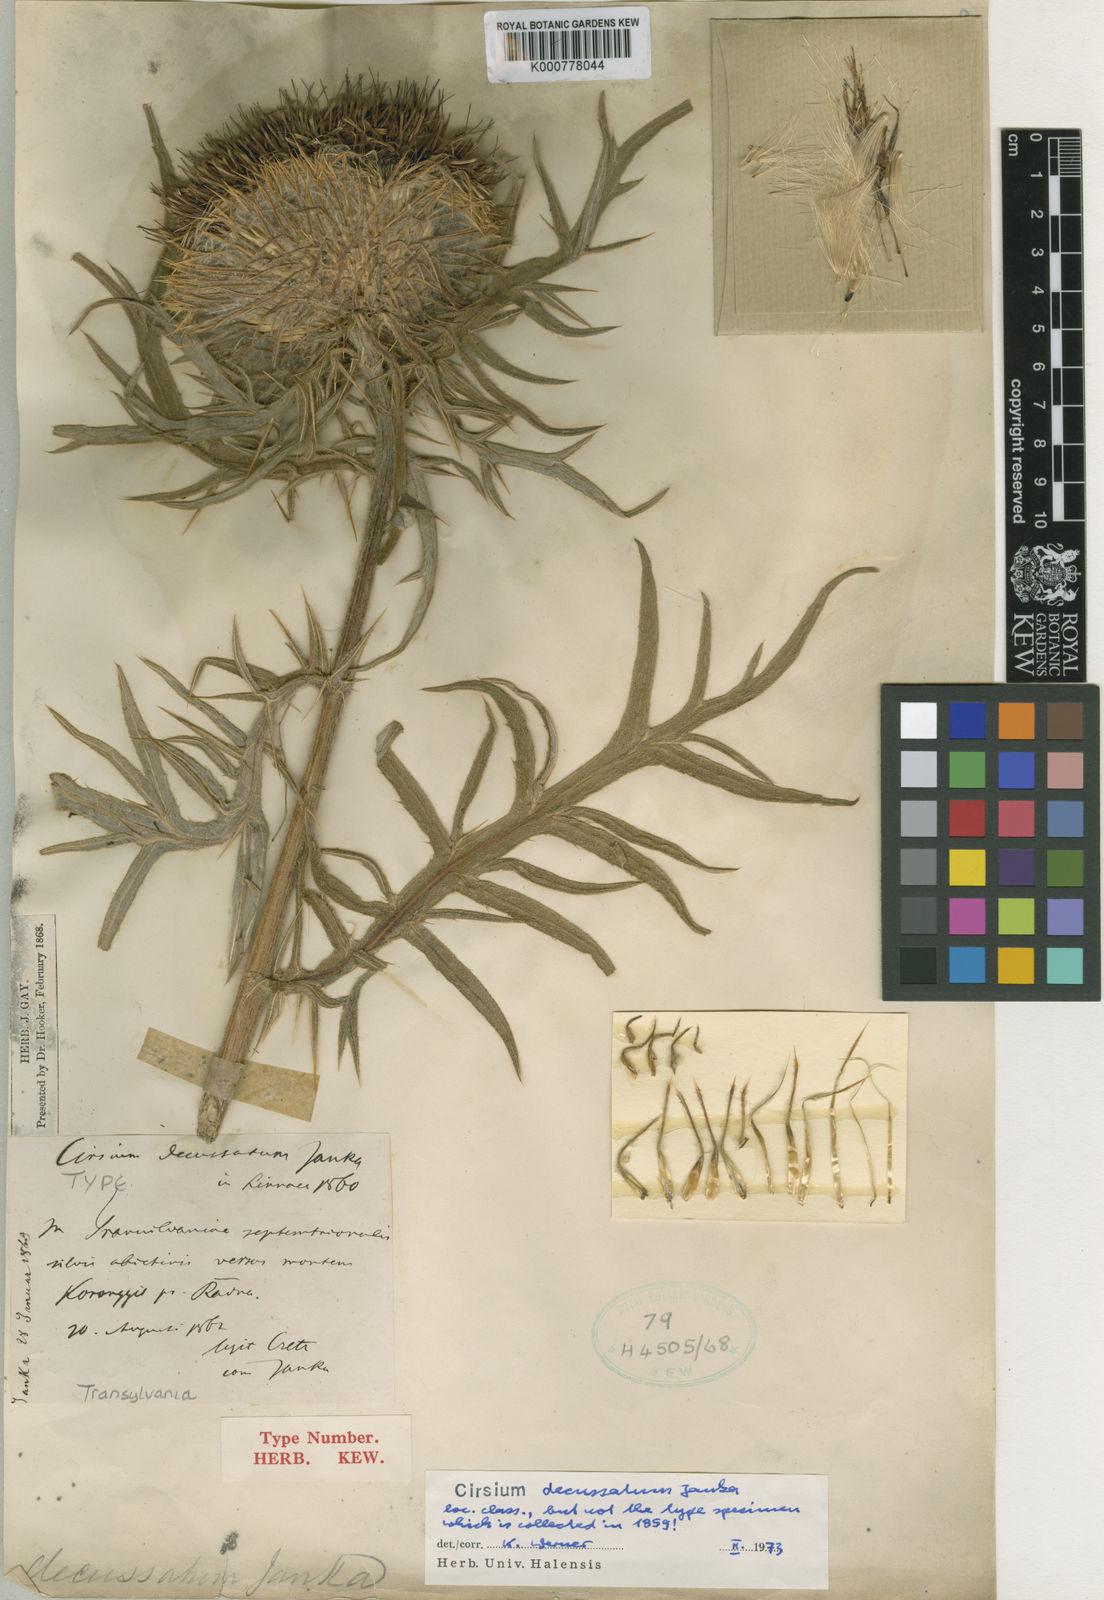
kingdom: Plantae
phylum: Tracheophyta
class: Magnoliopsida
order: Asterales
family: Asteraceae
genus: Lophiolepis
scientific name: Lophiolepis decussata
